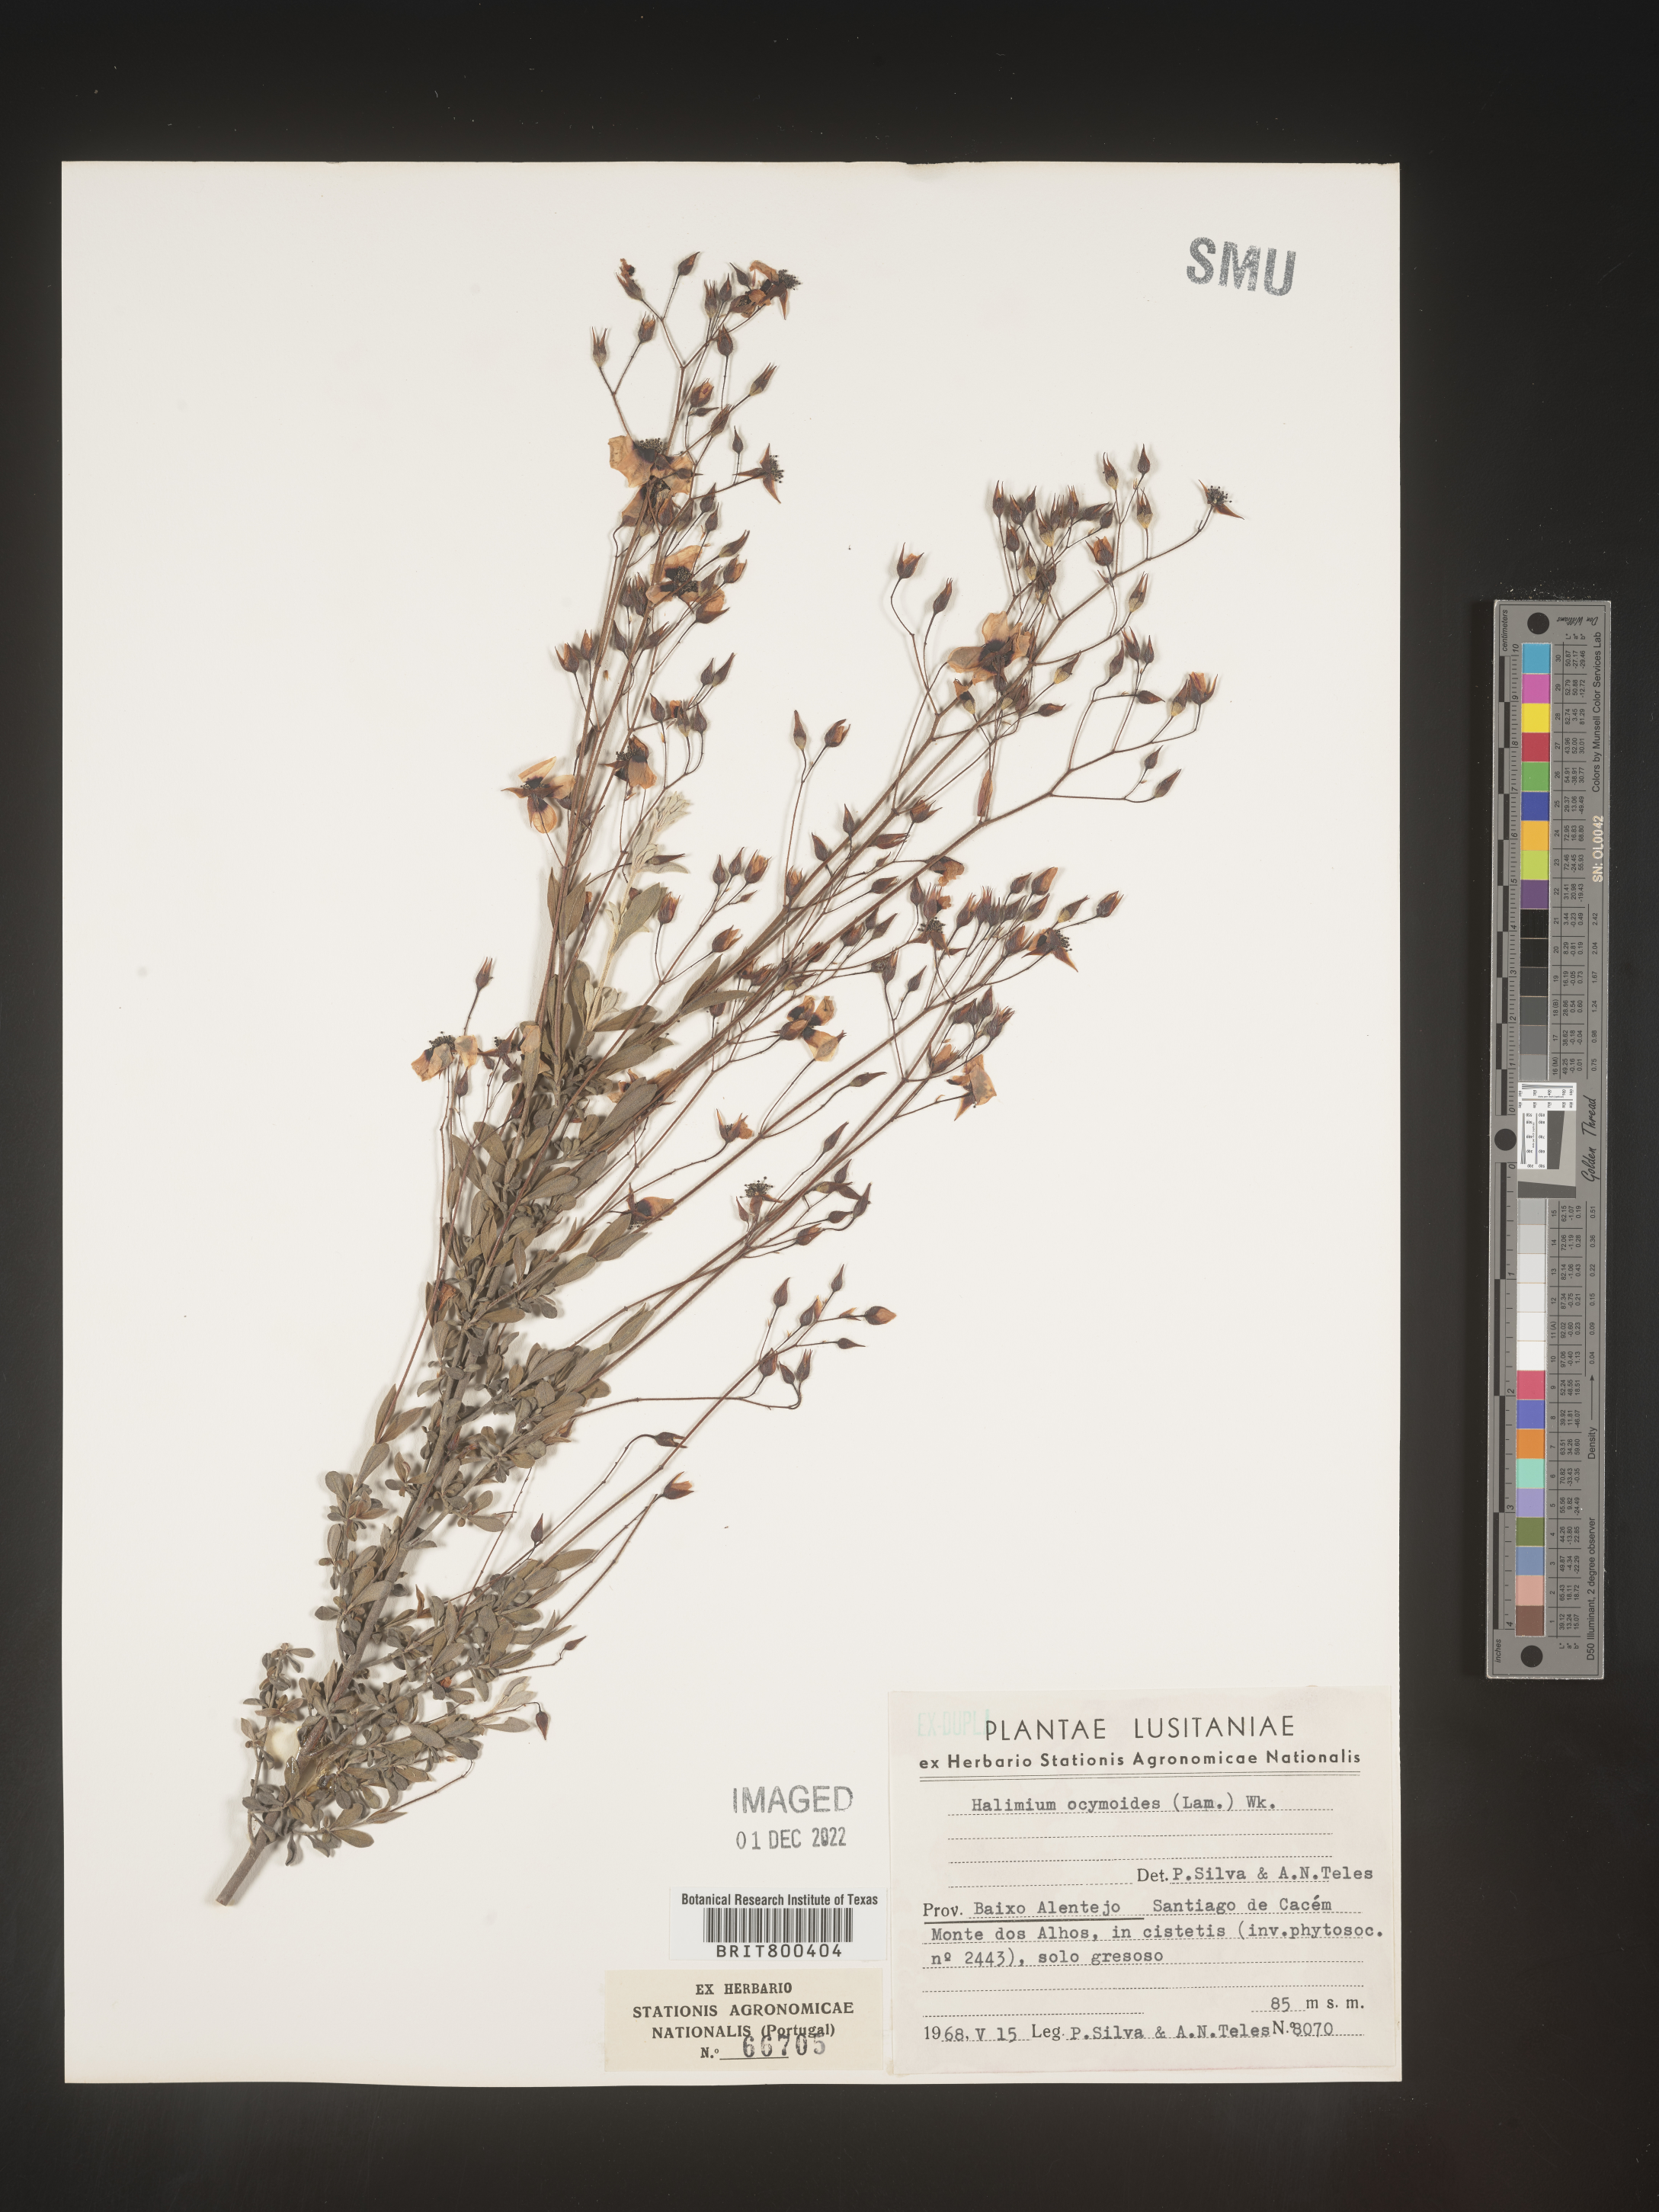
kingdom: Plantae
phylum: Tracheophyta
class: Magnoliopsida
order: Malvales
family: Cistaceae
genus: Halimium
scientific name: Halimium
